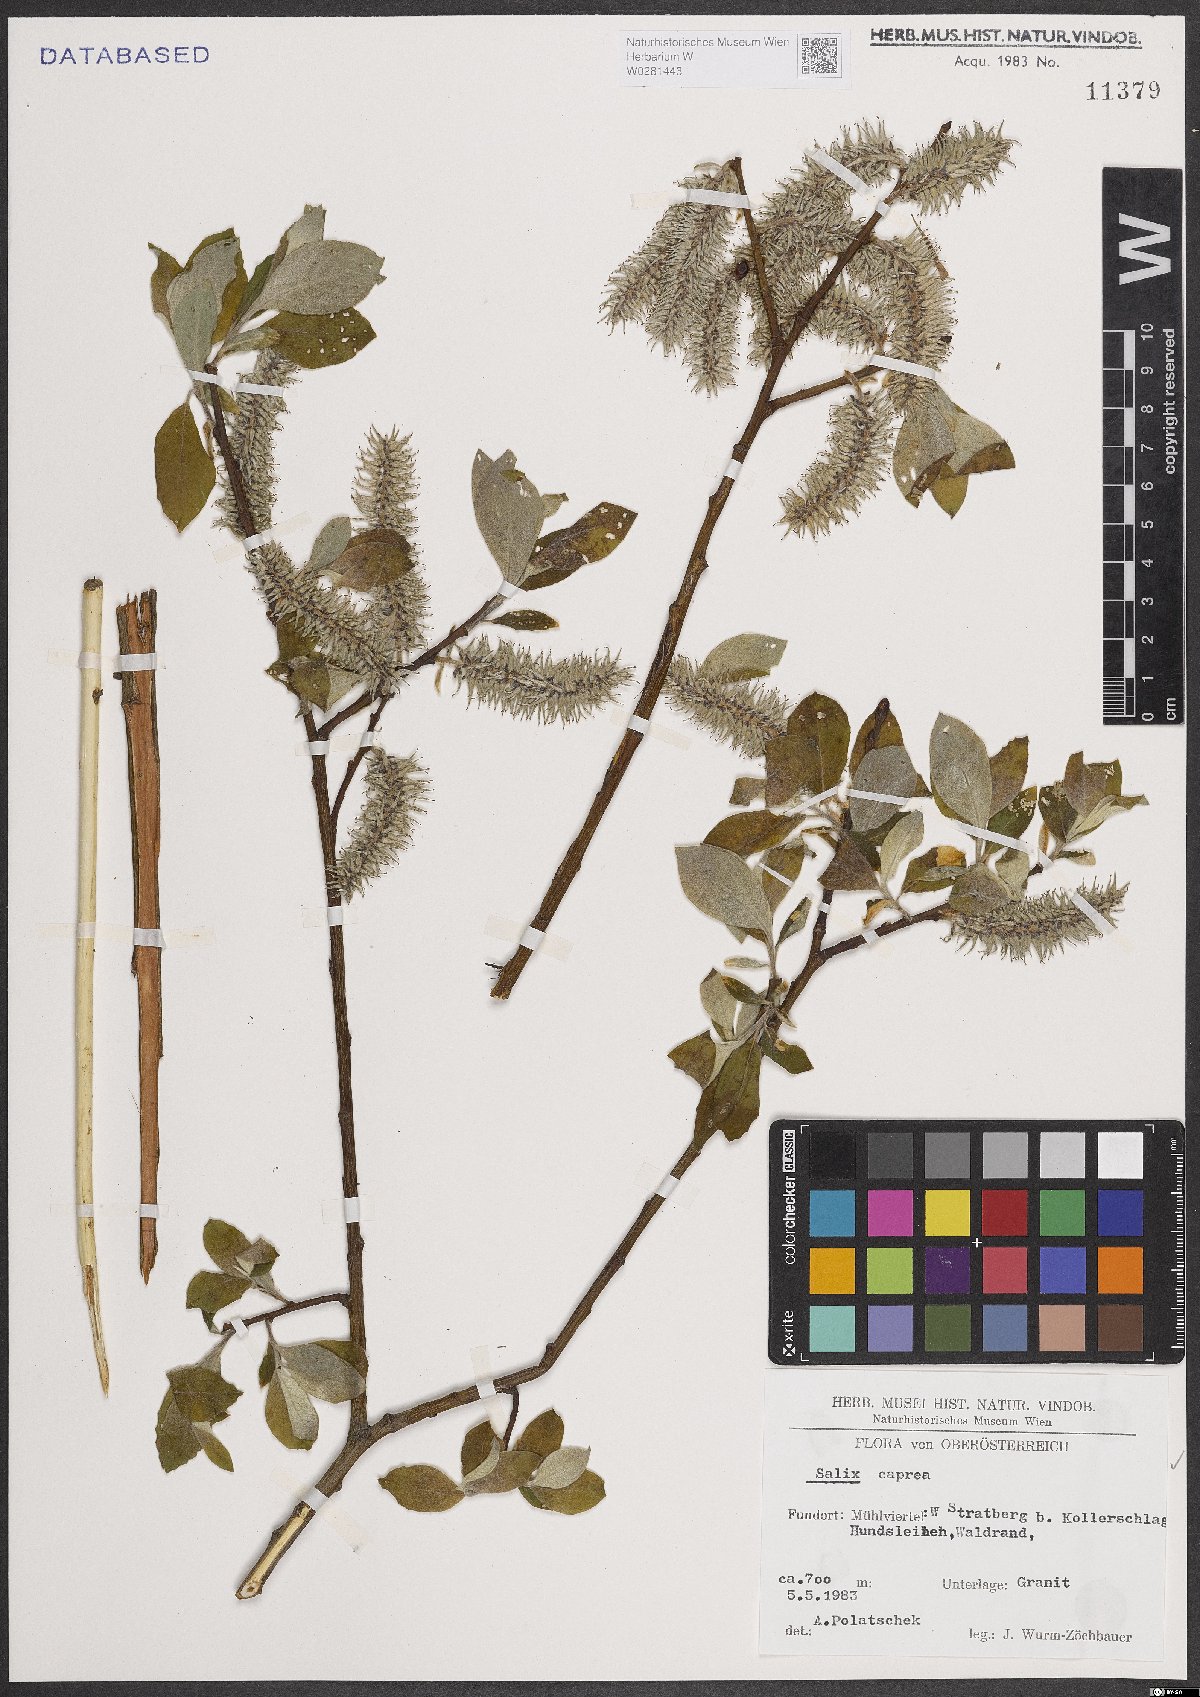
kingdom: Plantae
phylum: Tracheophyta
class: Magnoliopsida
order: Malpighiales
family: Salicaceae
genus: Salix
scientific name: Salix caprea
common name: Goat willow
